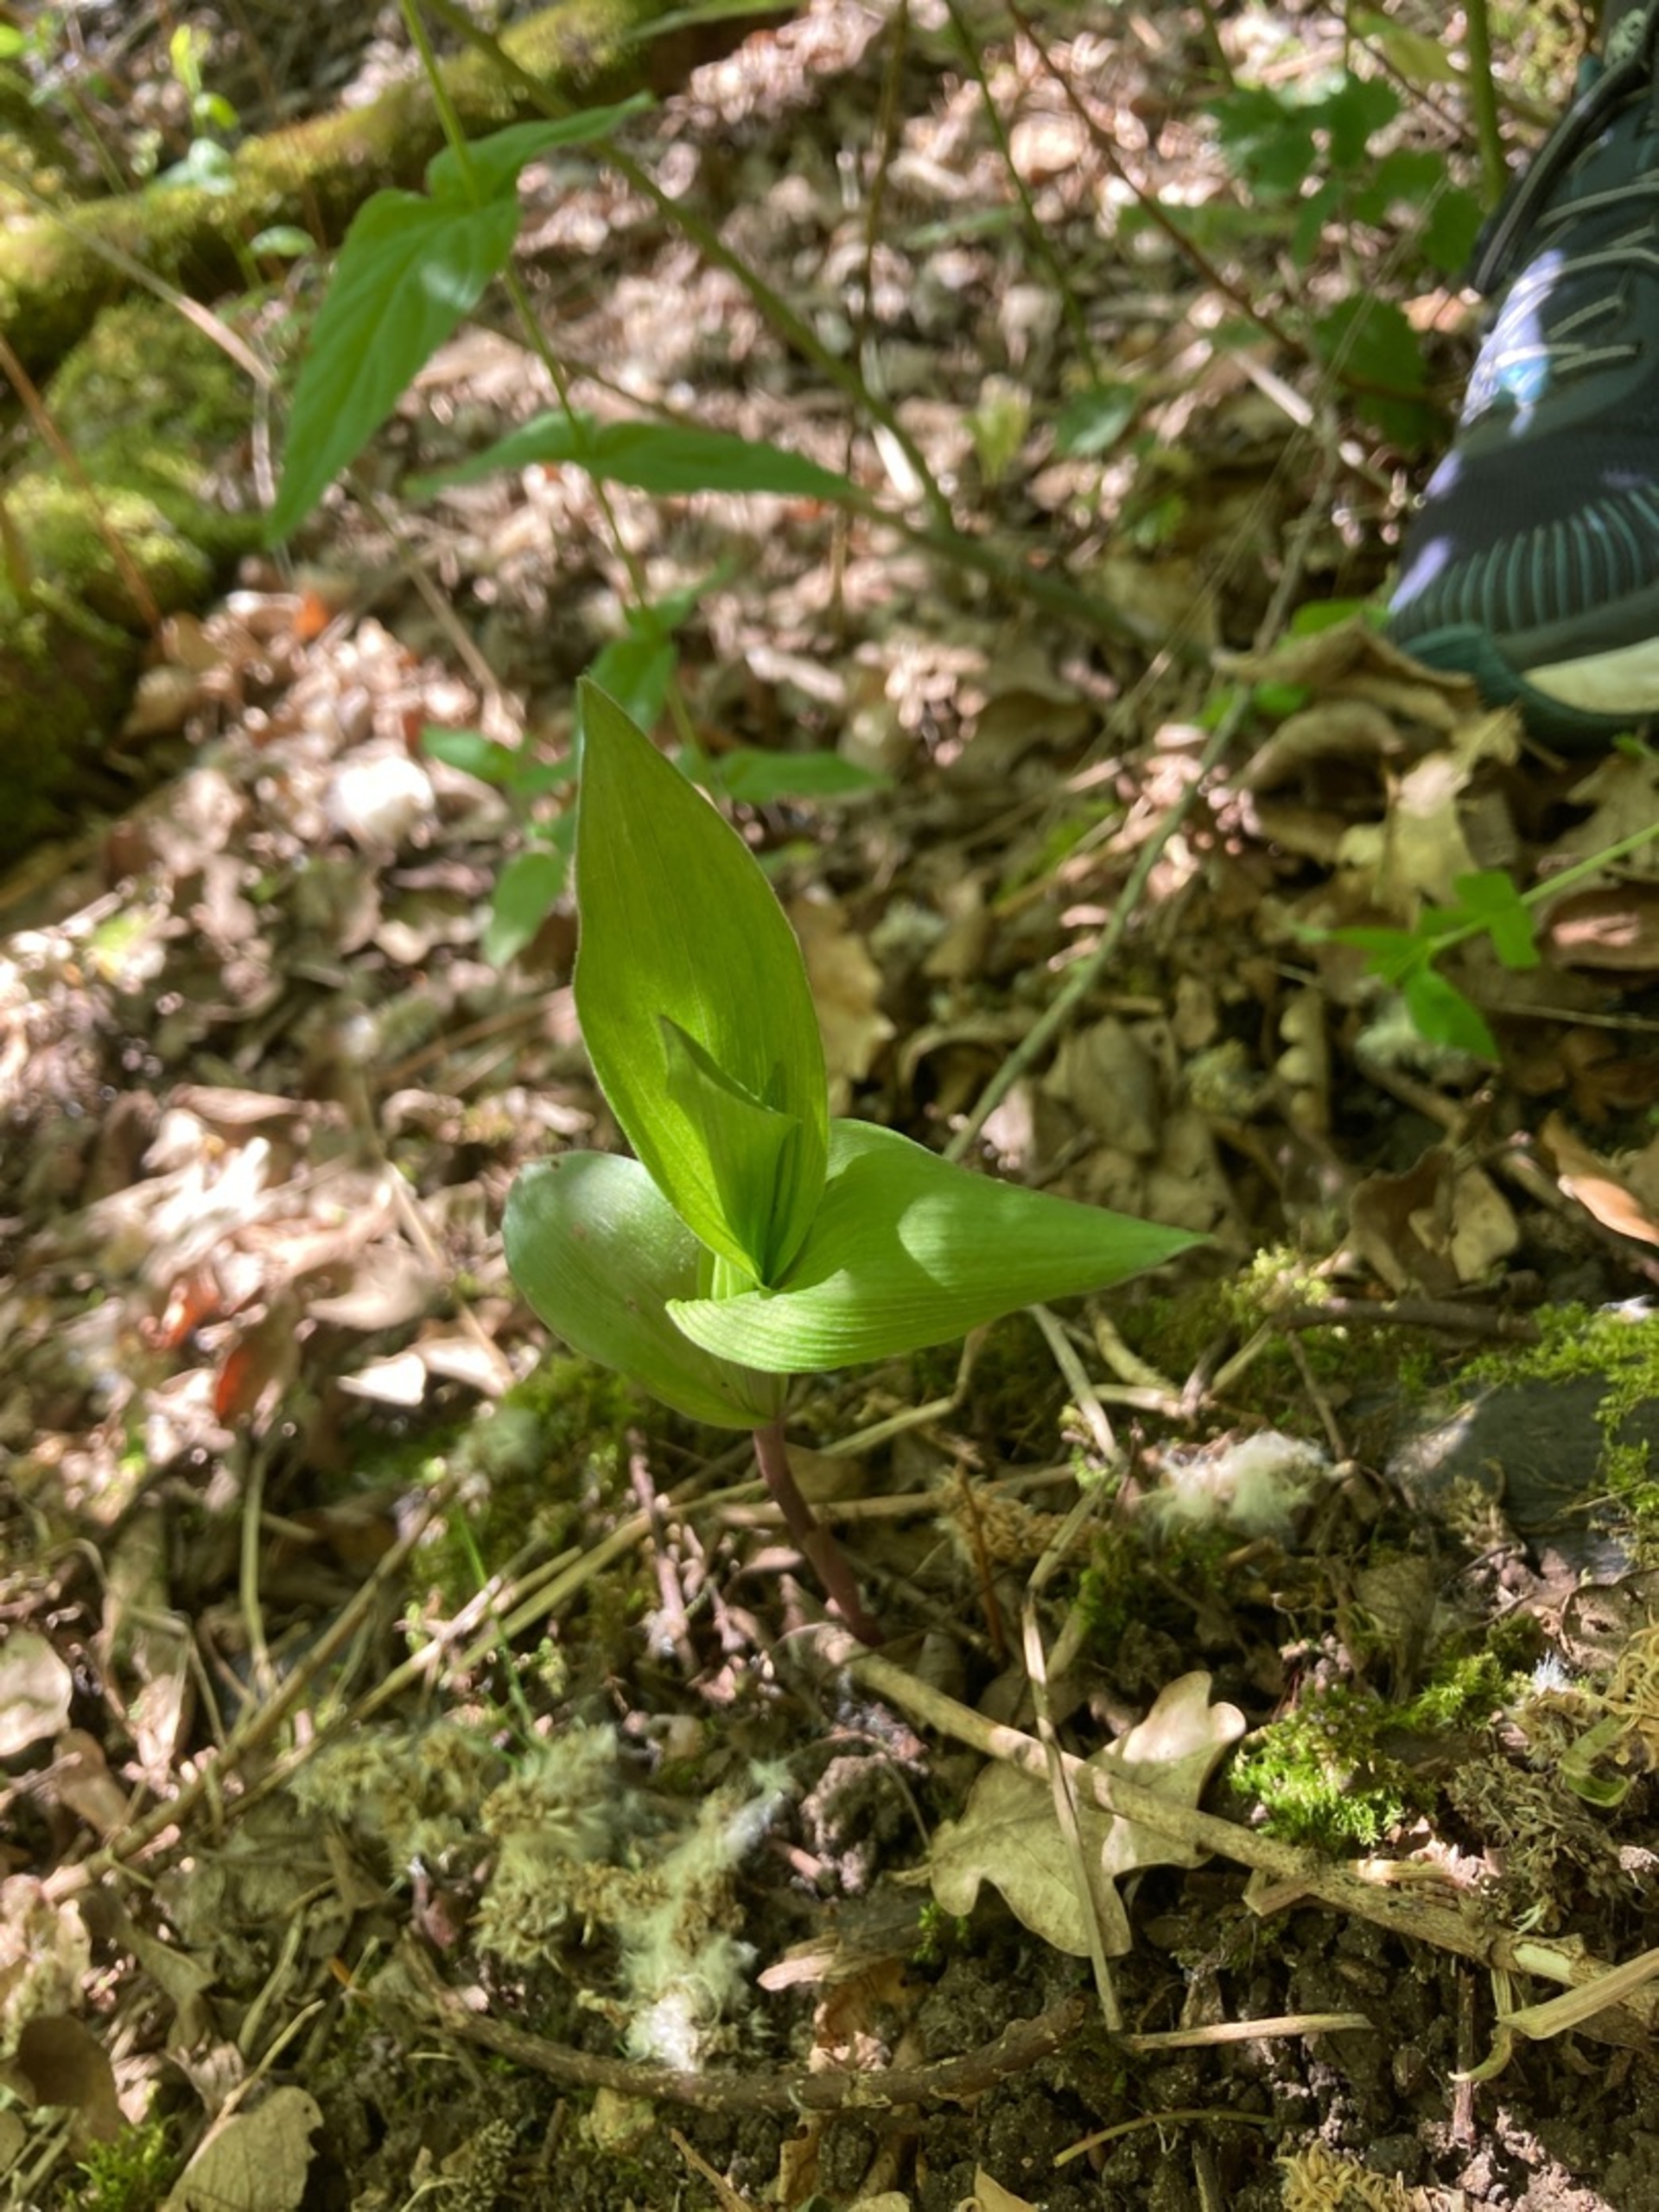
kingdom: Plantae
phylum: Tracheophyta
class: Liliopsida
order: Asparagales
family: Orchidaceae
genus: Epipactis
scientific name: Epipactis helleborine
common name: Skov-hullæbe
